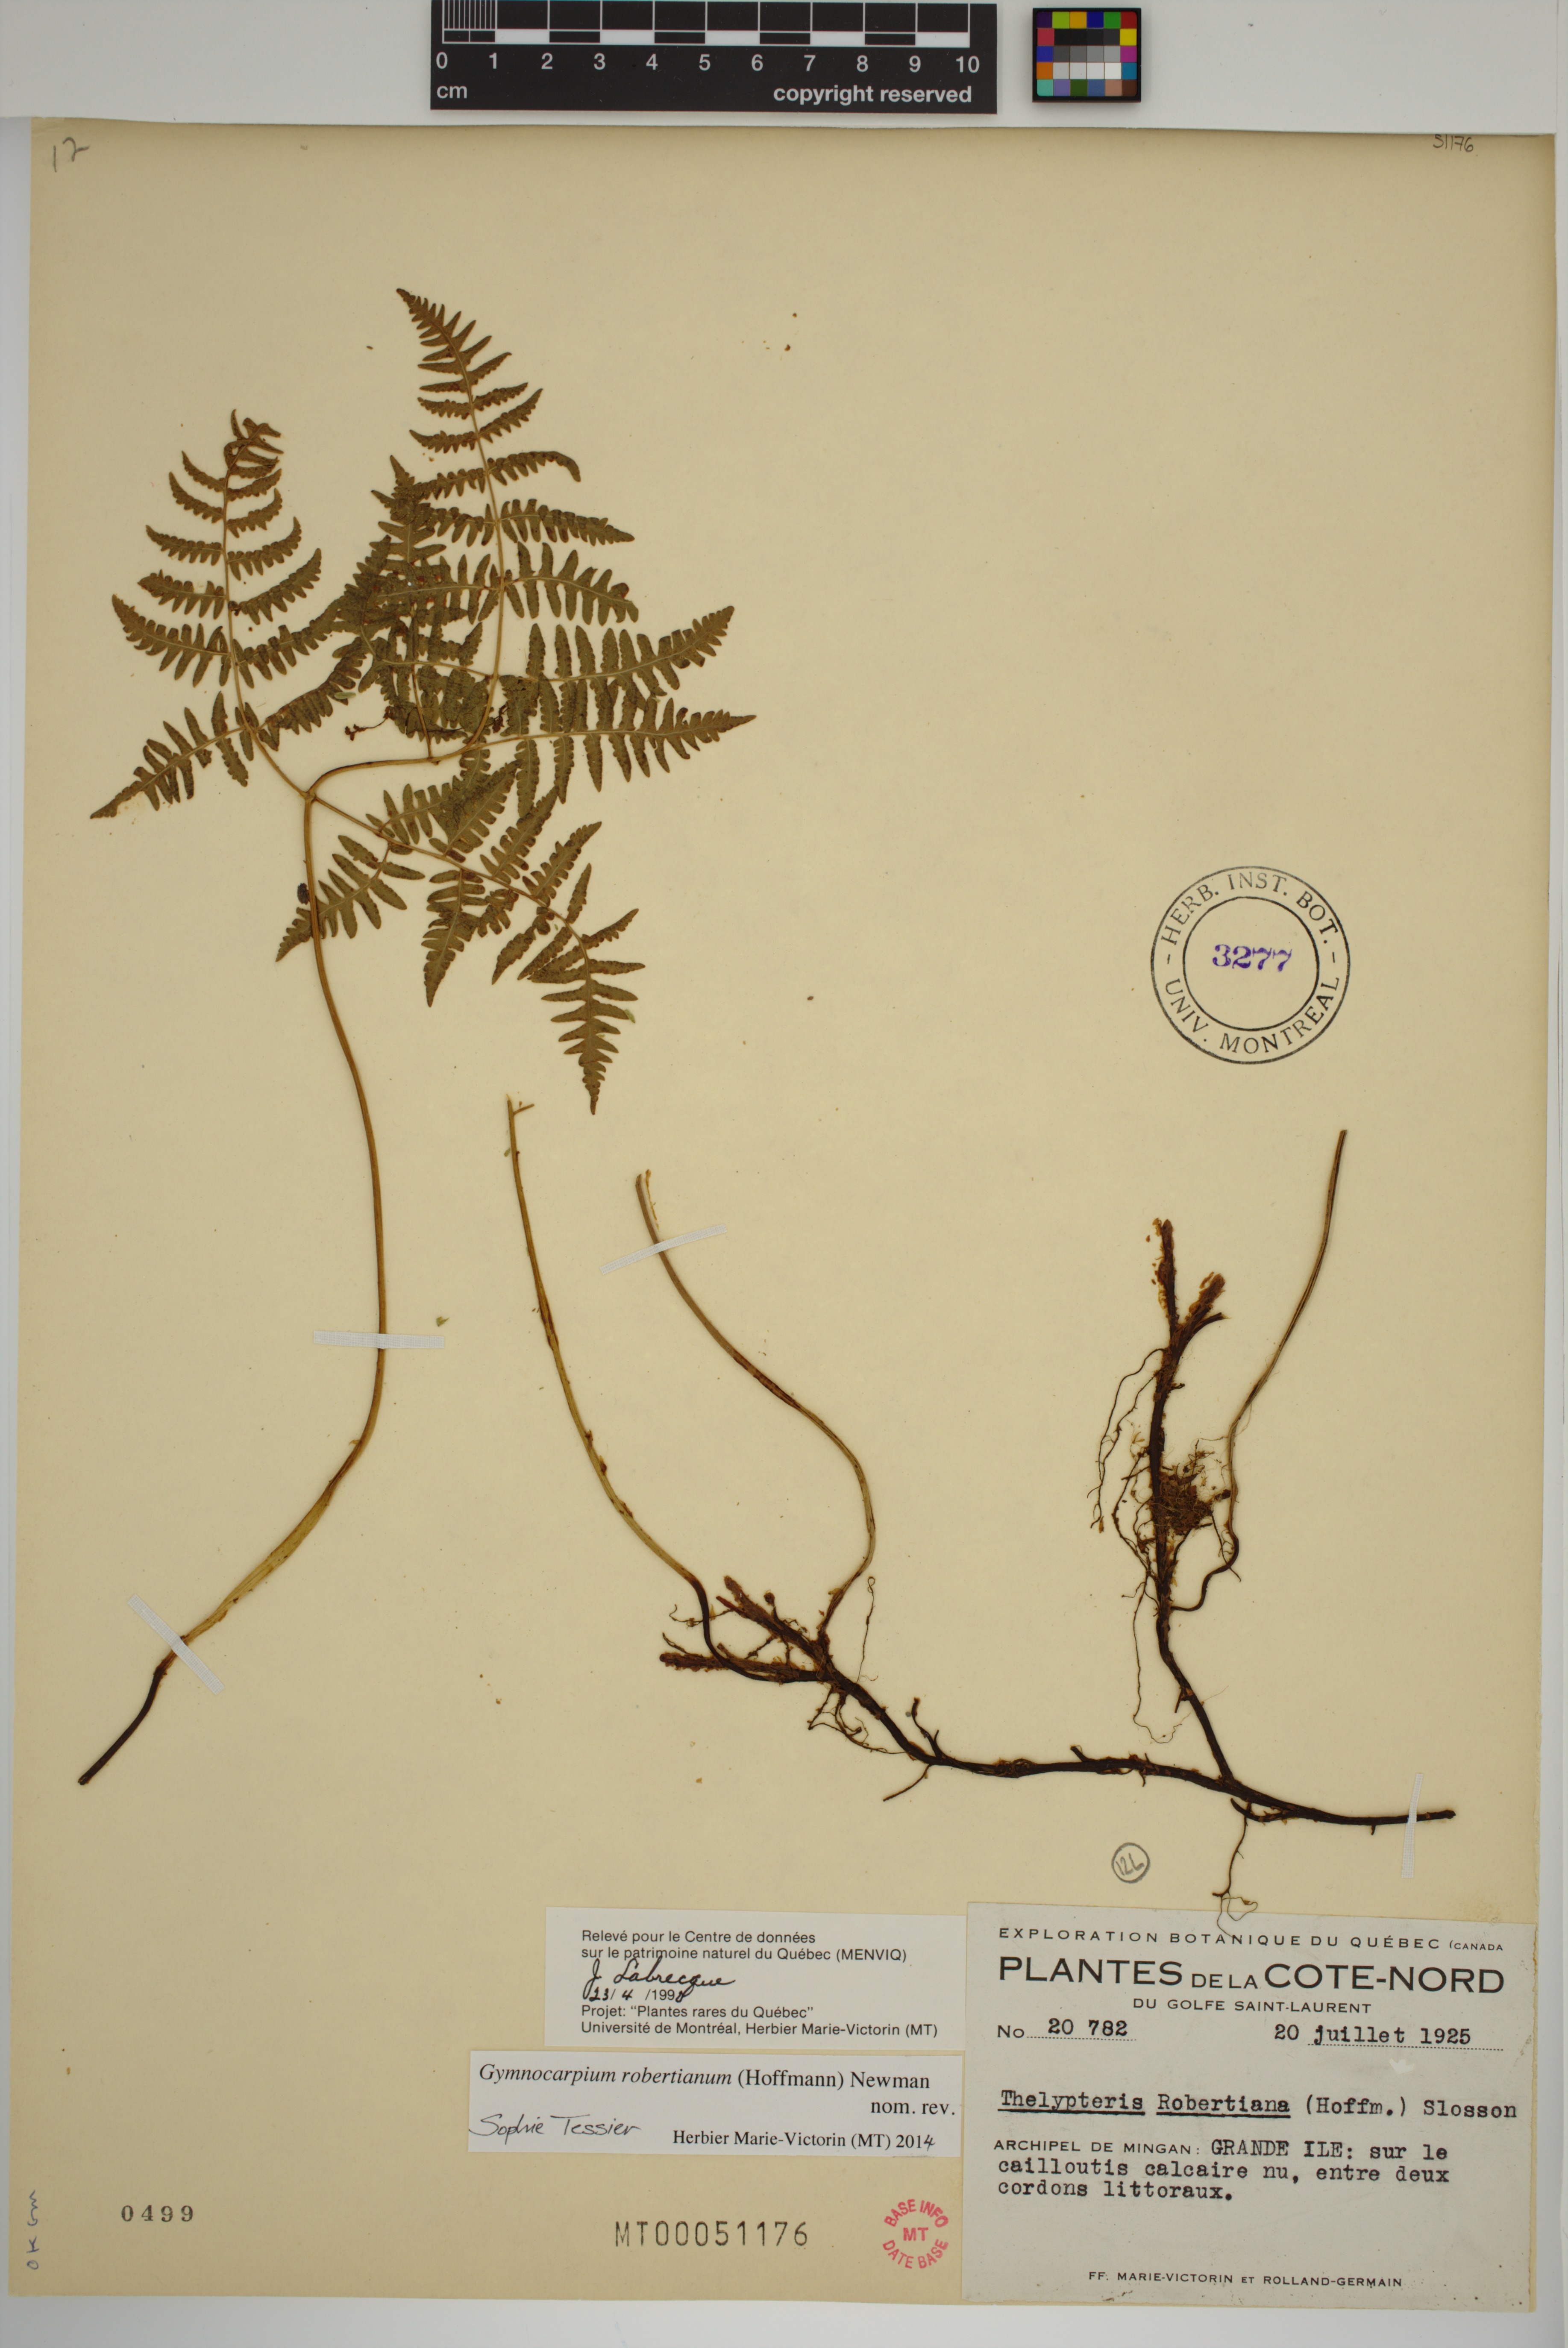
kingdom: Plantae
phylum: Tracheophyta
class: Polypodiopsida
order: Polypodiales
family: Cystopteridaceae
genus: Gymnocarpium
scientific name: Gymnocarpium robertianum
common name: Limestone fern
